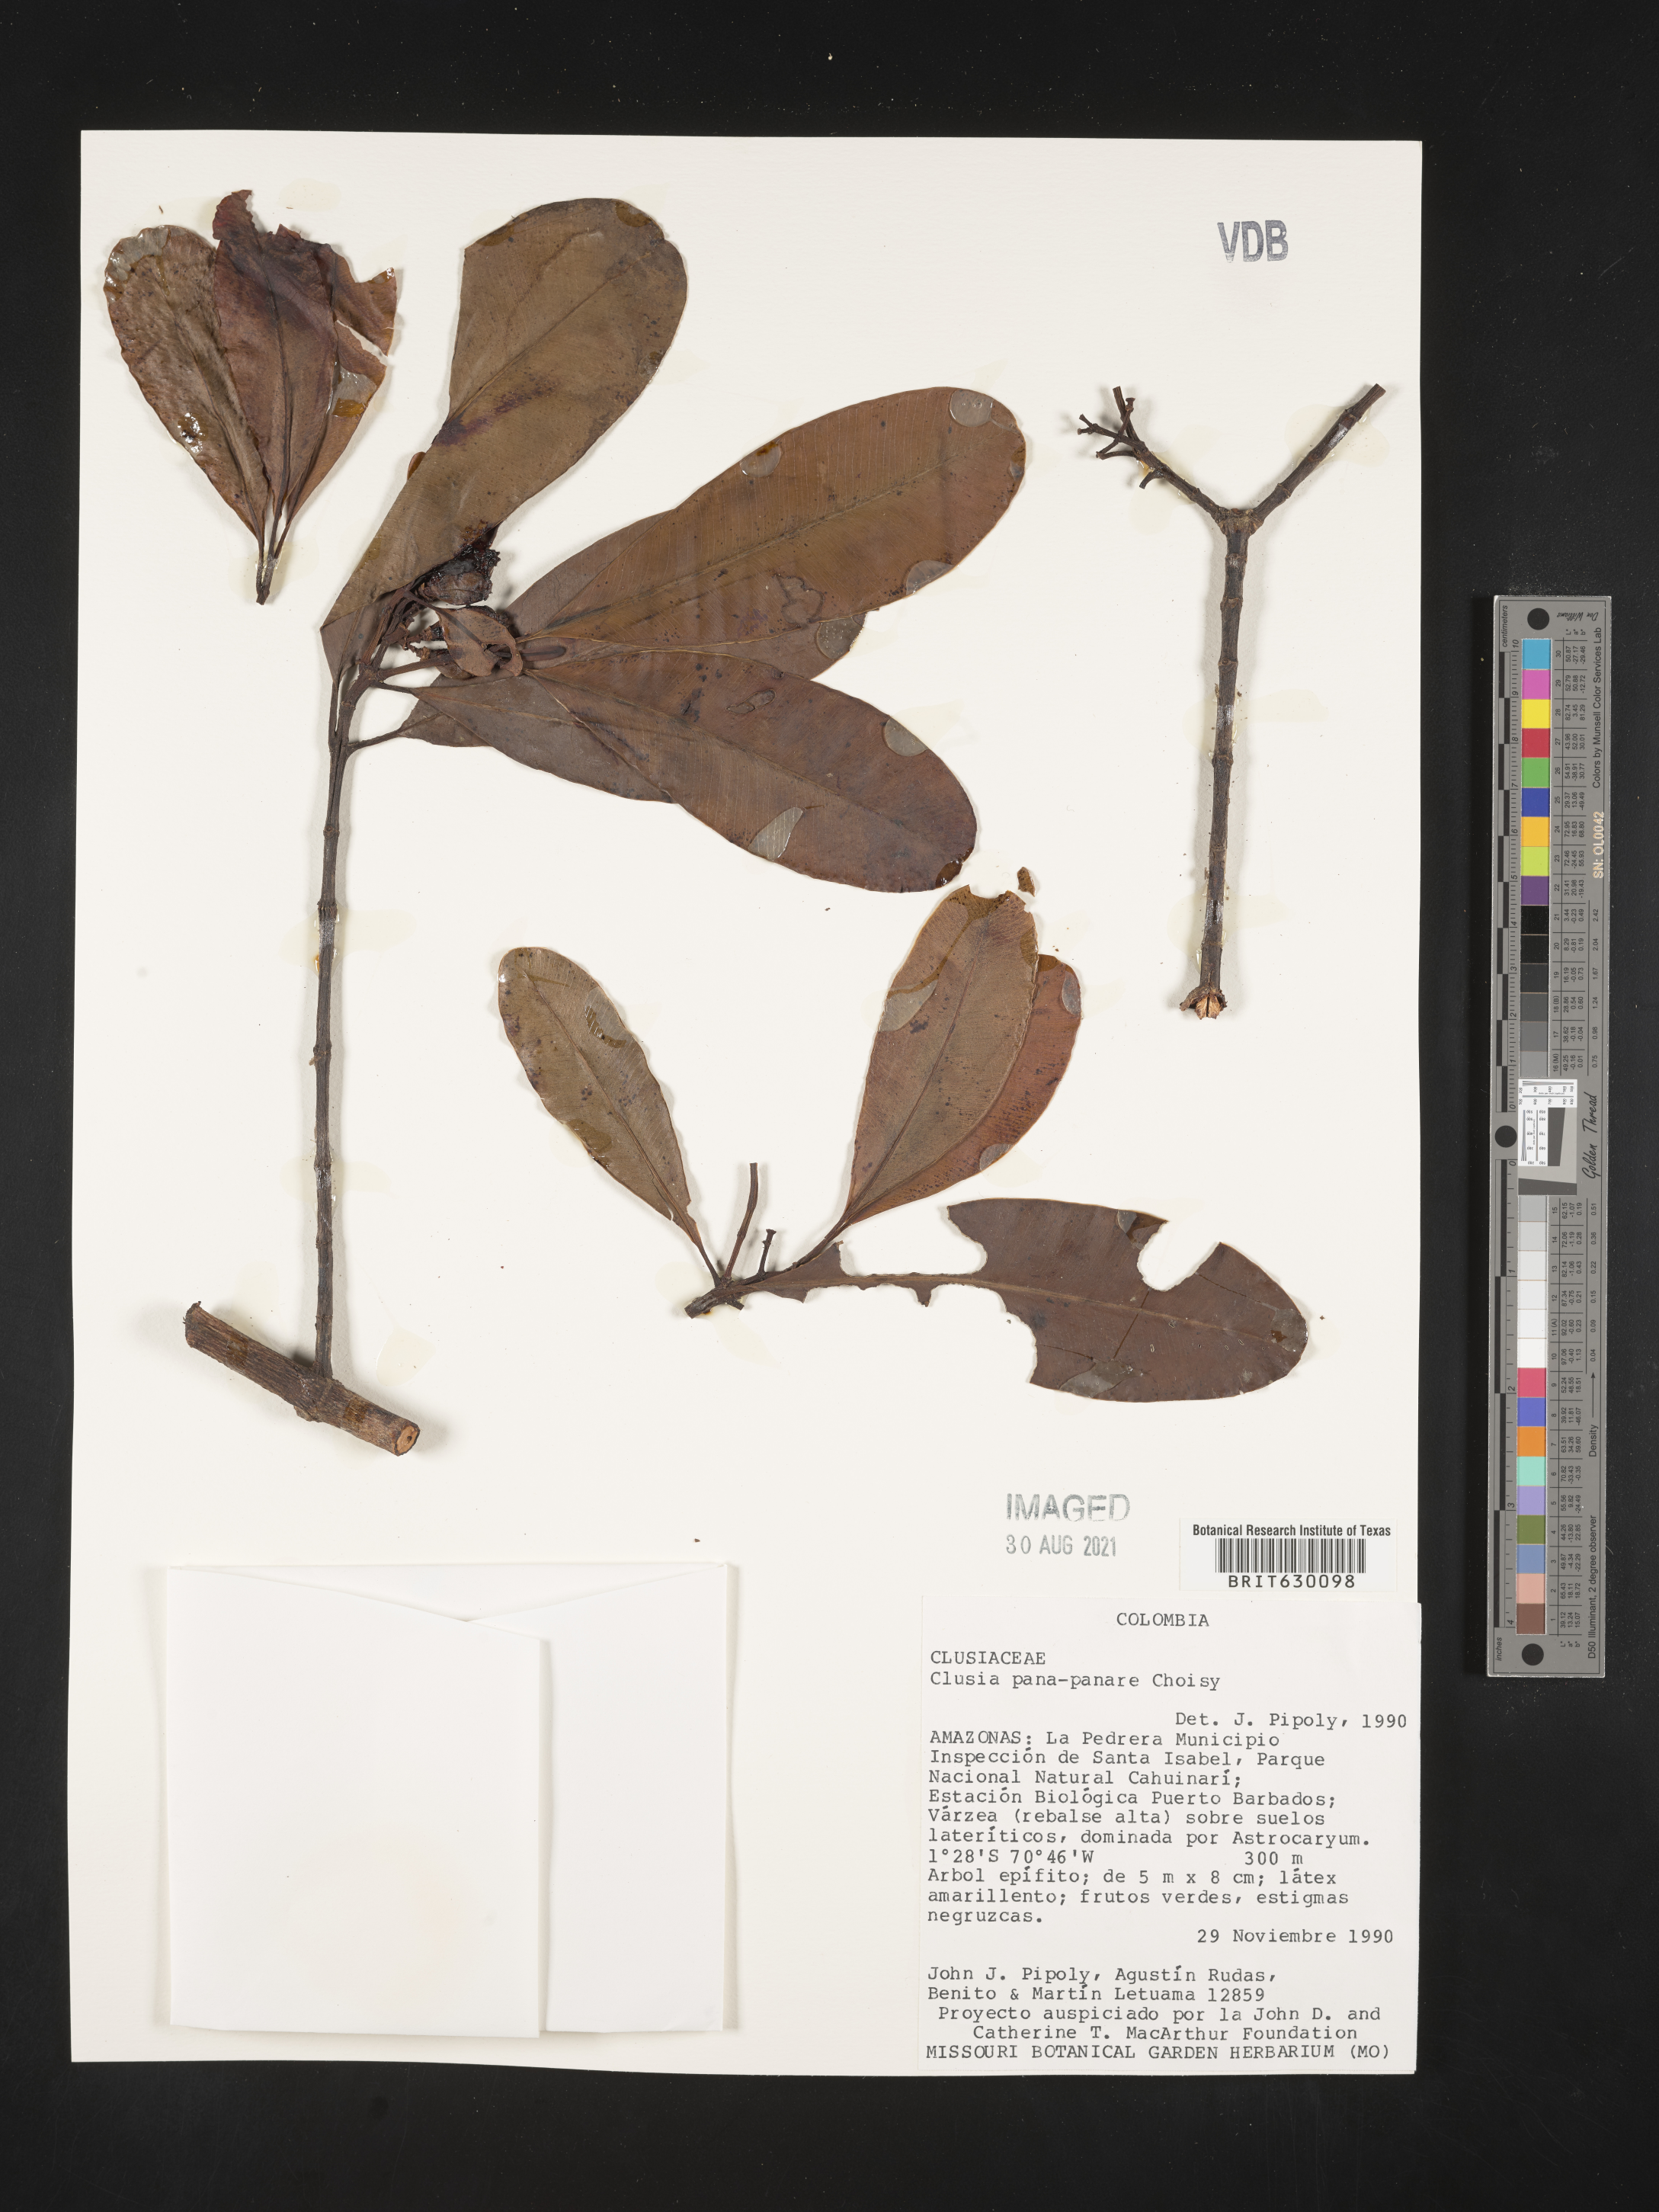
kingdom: Plantae
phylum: Tracheophyta
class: Magnoliopsida
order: Malpighiales
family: Clusiaceae
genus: Clusia
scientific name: Clusia panapanari
